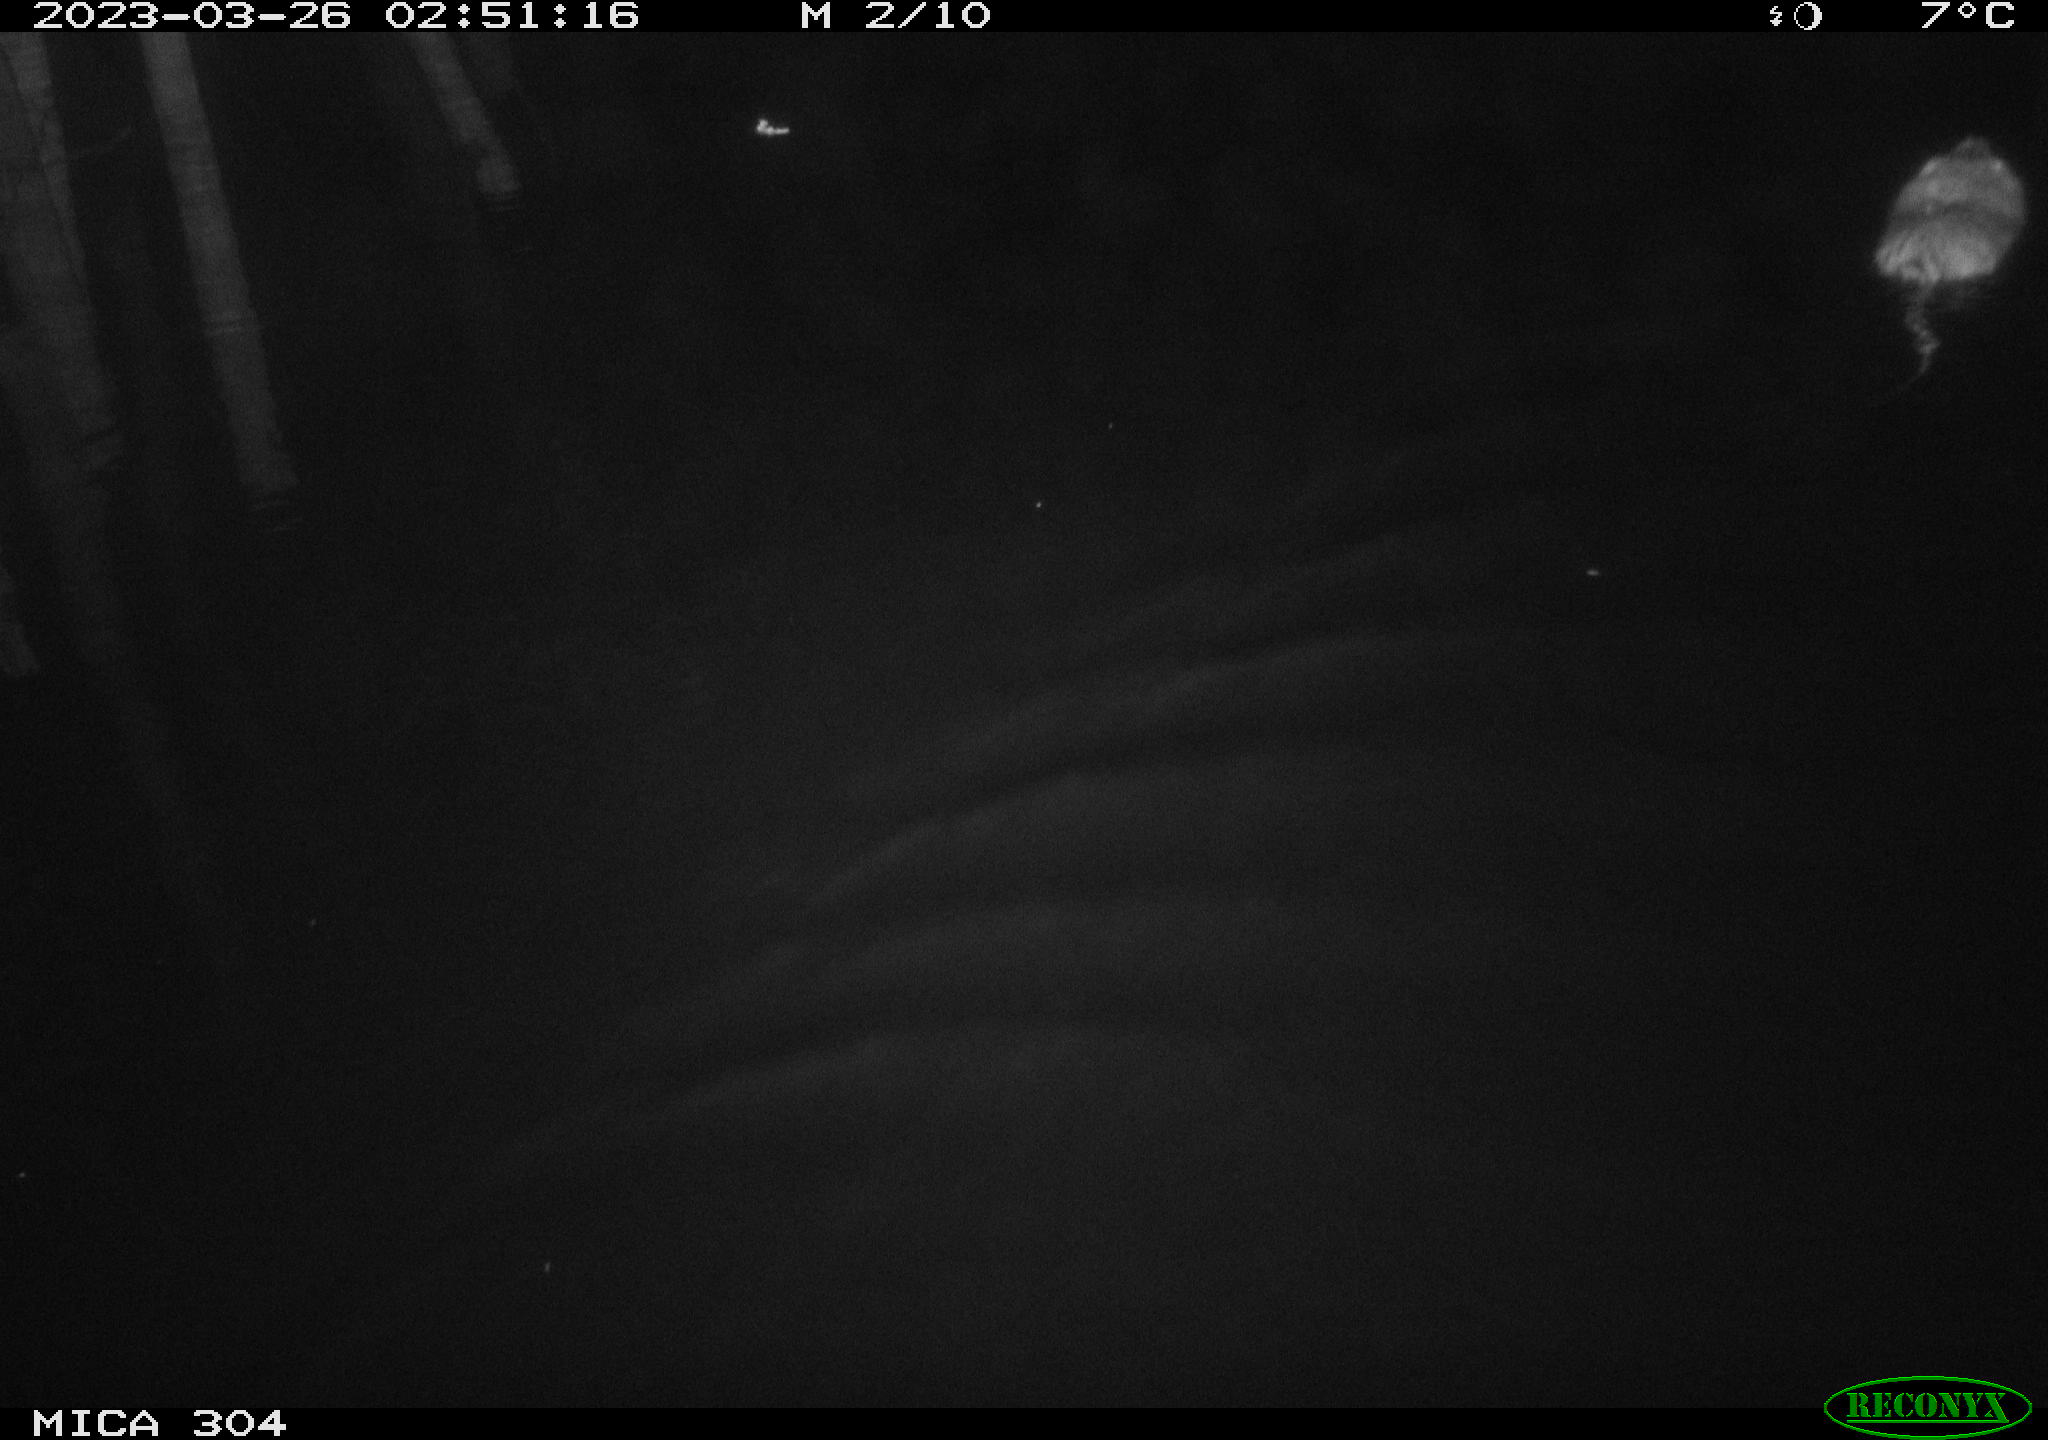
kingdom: Animalia
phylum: Chordata
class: Mammalia
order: Rodentia
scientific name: Rodentia
